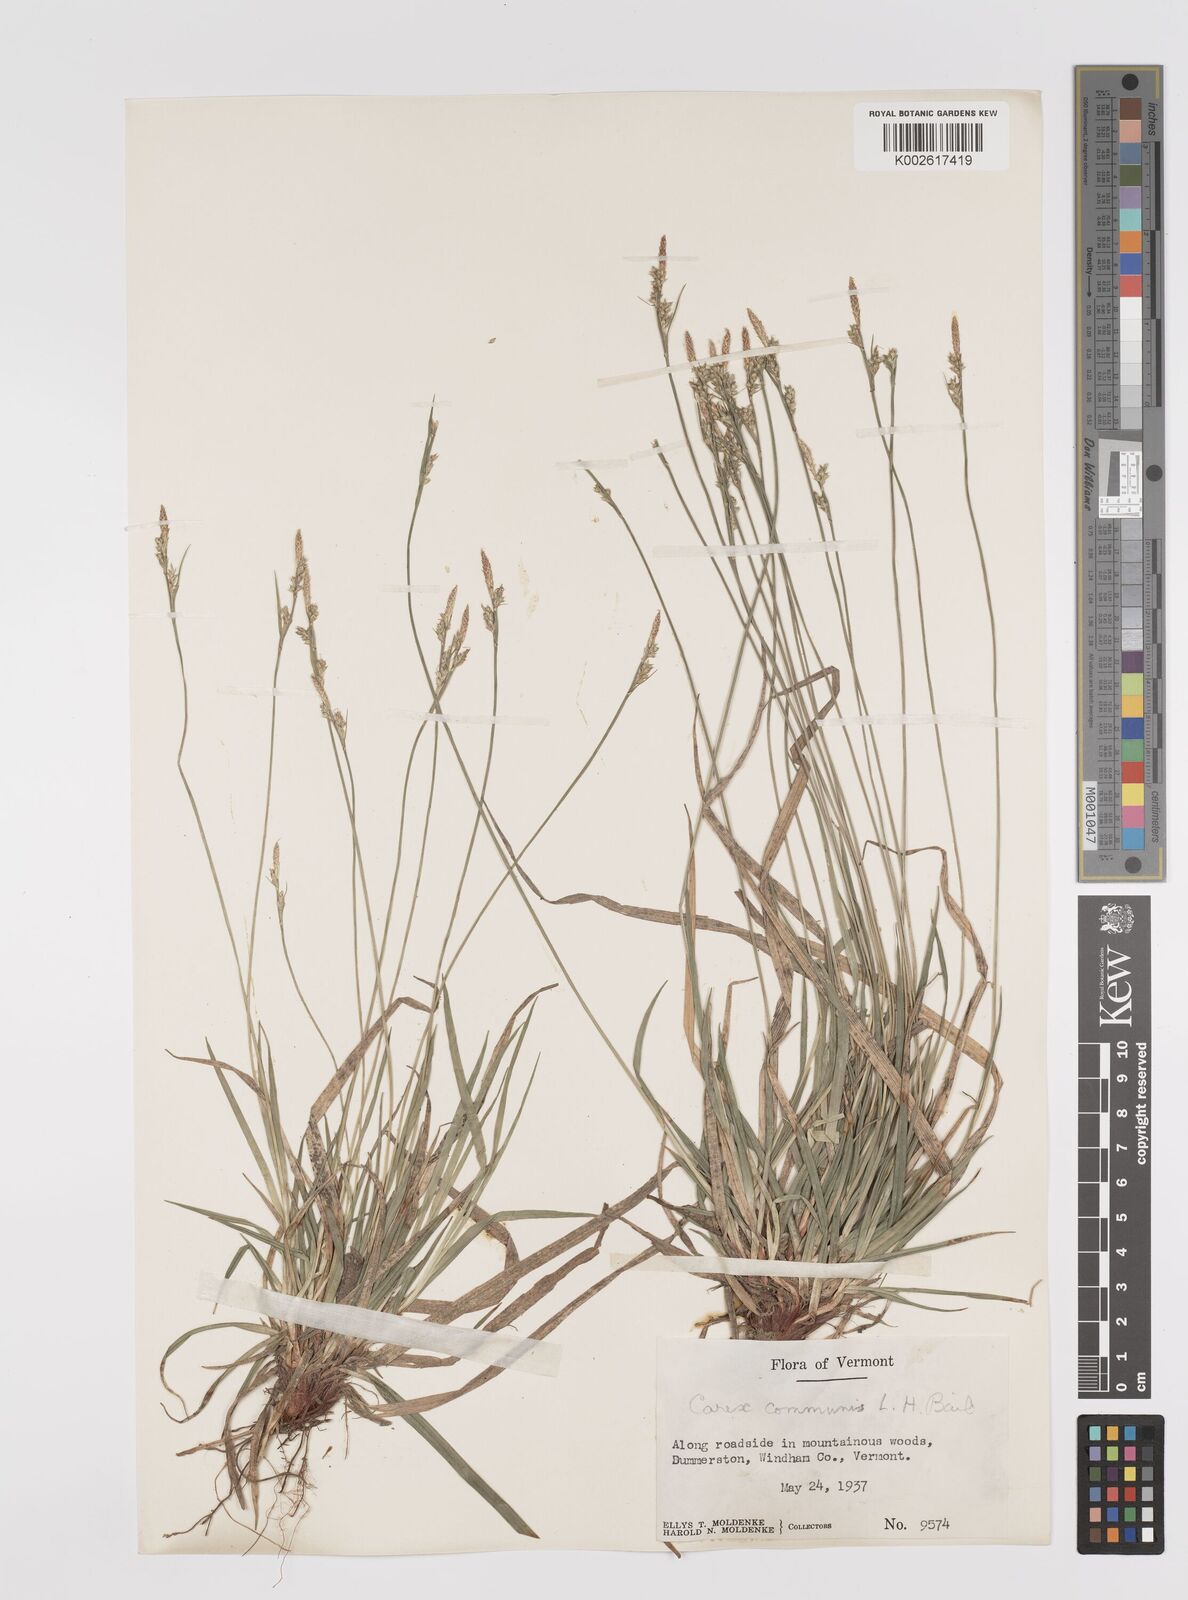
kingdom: Plantae
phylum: Tracheophyta
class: Liliopsida
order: Poales
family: Cyperaceae
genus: Carex
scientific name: Carex communis
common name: Colonial oak sedge
